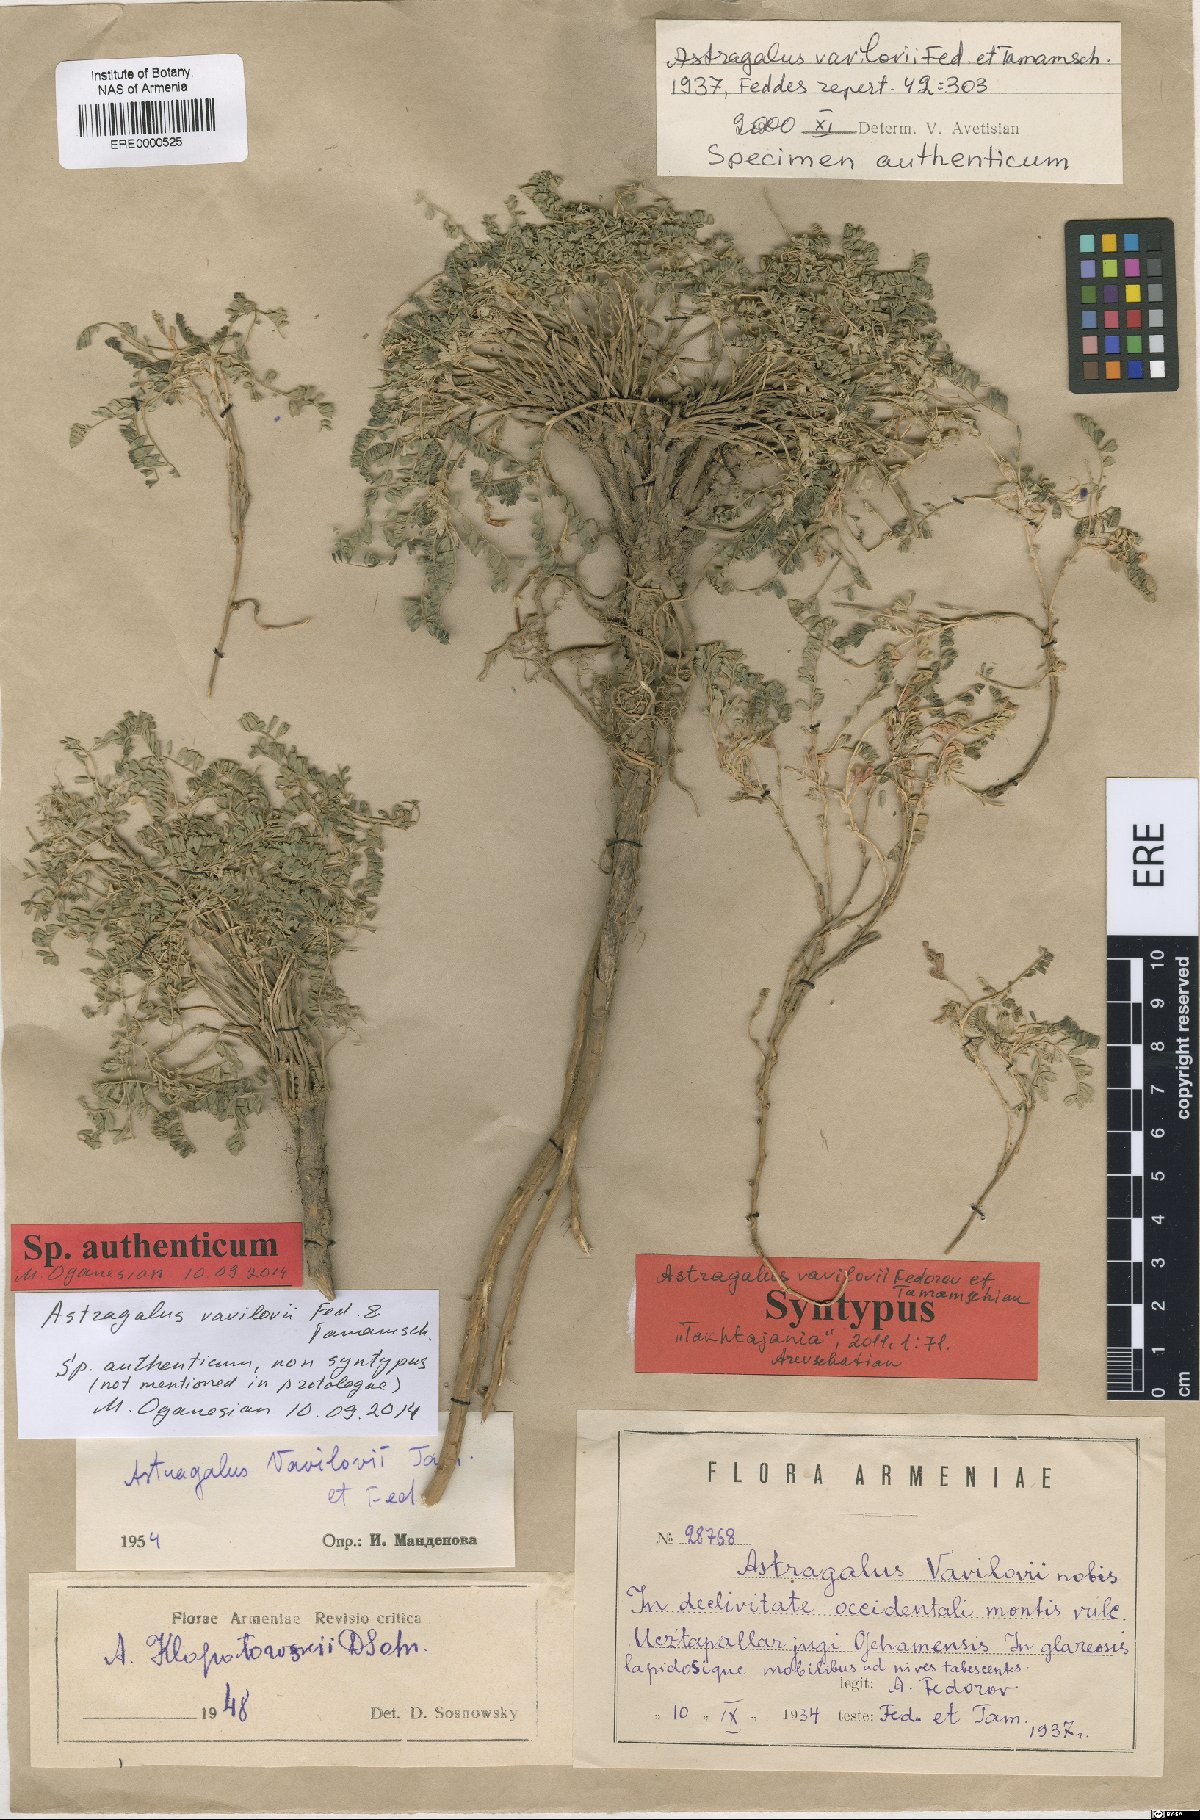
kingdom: Plantae
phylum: Tracheophyta
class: Magnoliopsida
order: Fabales
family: Fabaceae
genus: Astragalus
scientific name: Astragalus vavilovii
